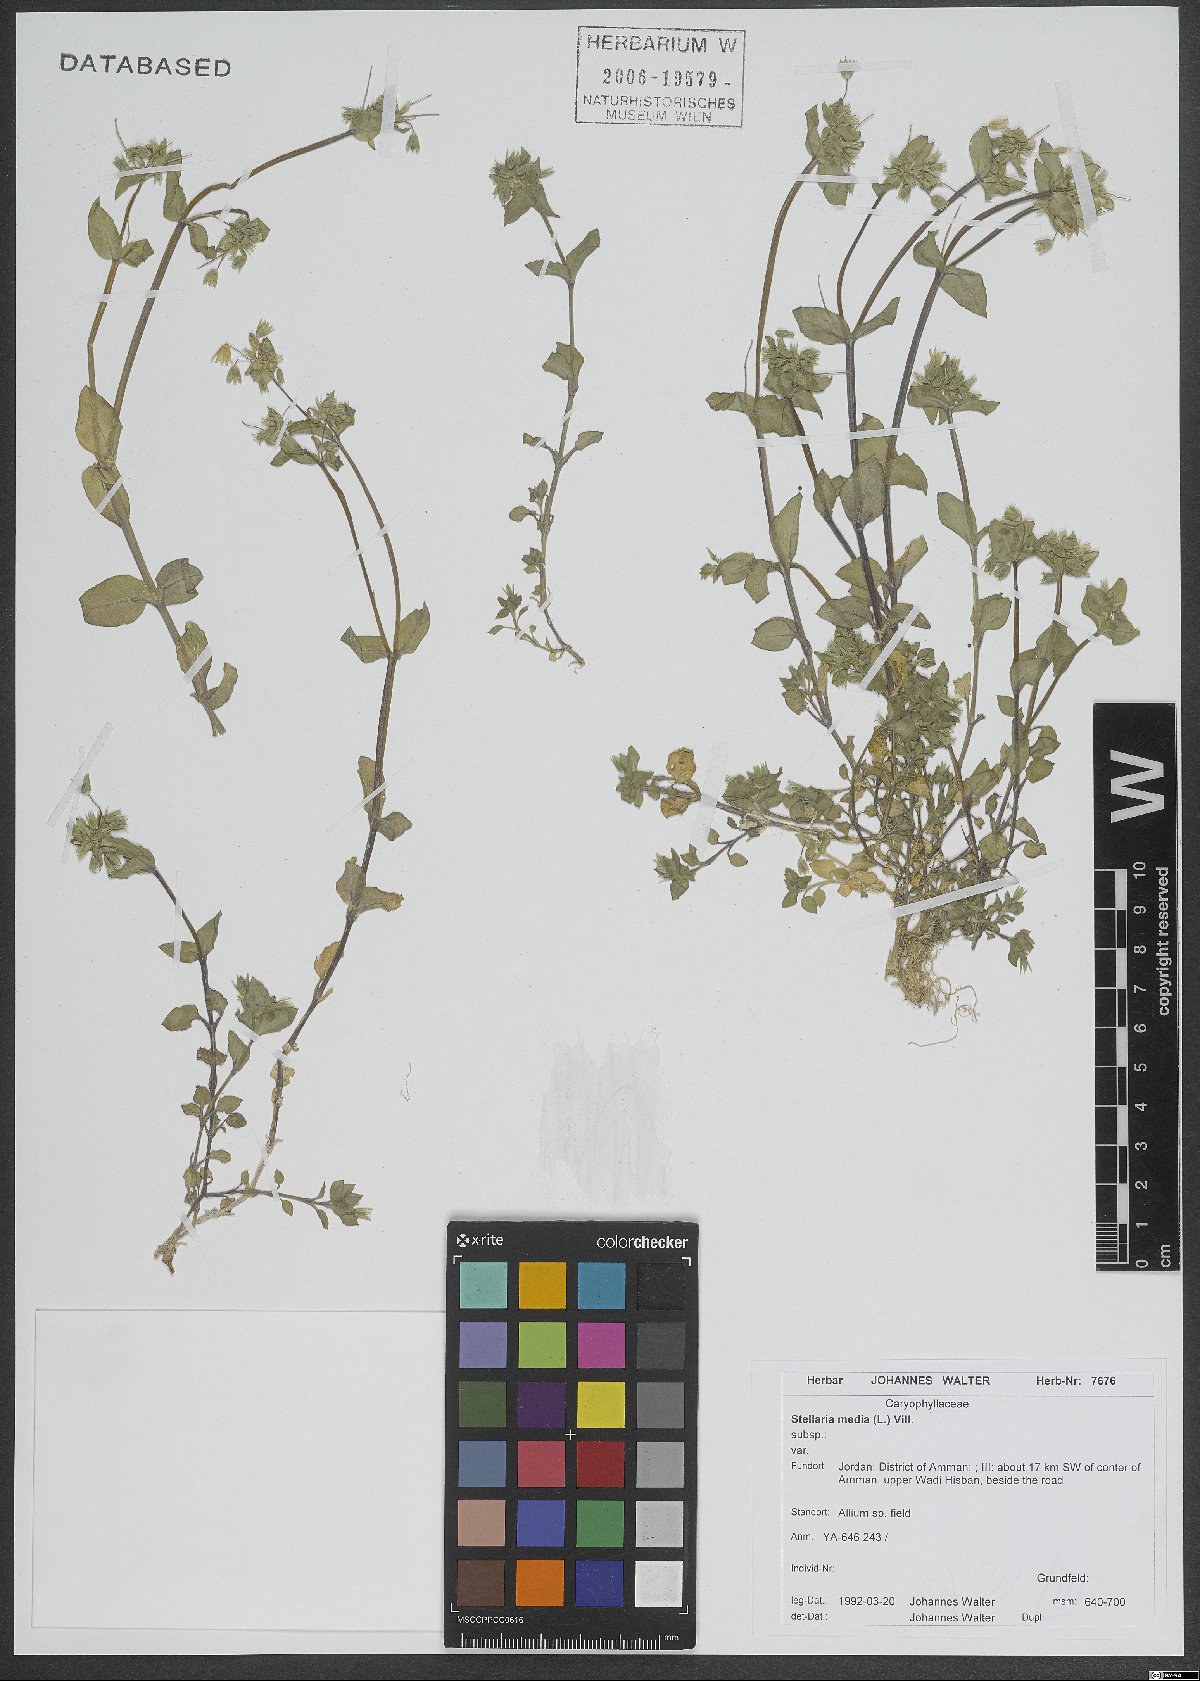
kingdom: Plantae
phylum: Tracheophyta
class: Magnoliopsida
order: Caryophyllales
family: Caryophyllaceae
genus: Stellaria
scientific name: Stellaria apetala
